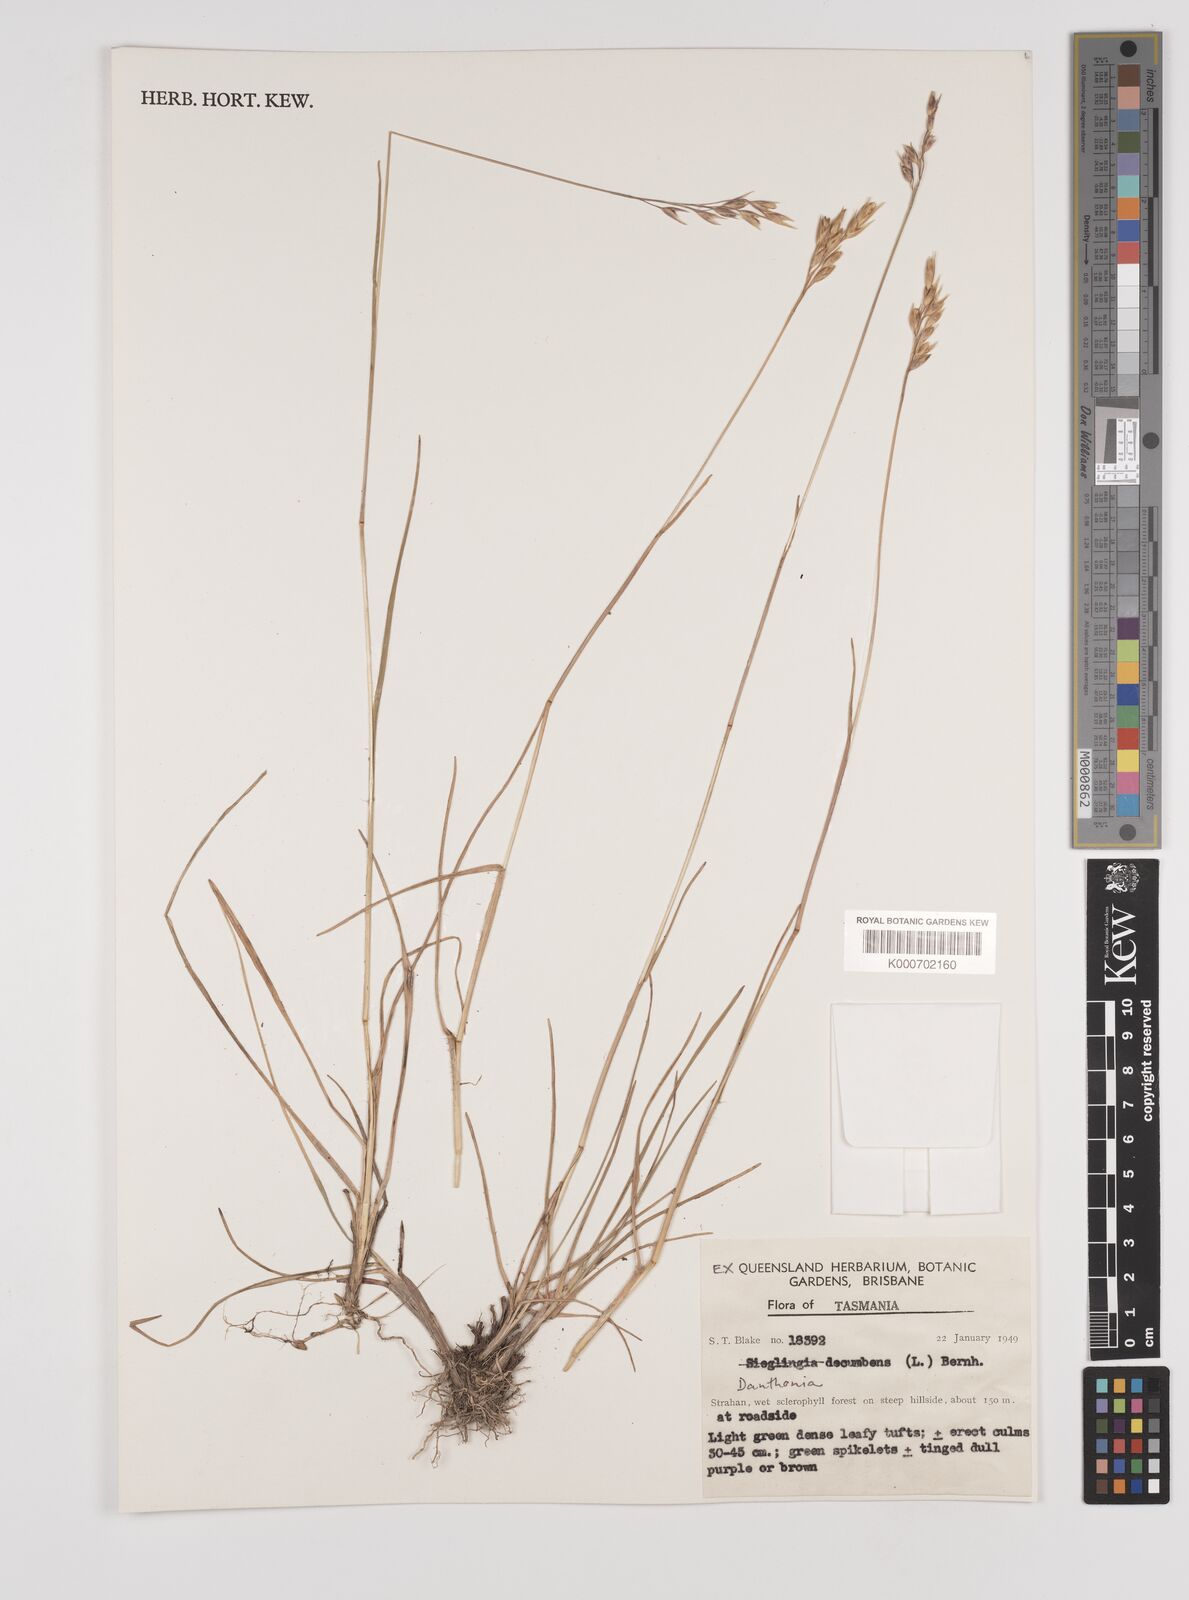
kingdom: Plantae
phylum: Tracheophyta
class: Liliopsida
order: Poales
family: Poaceae
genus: Danthonia
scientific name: Danthonia decumbens
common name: Common heathgrass
